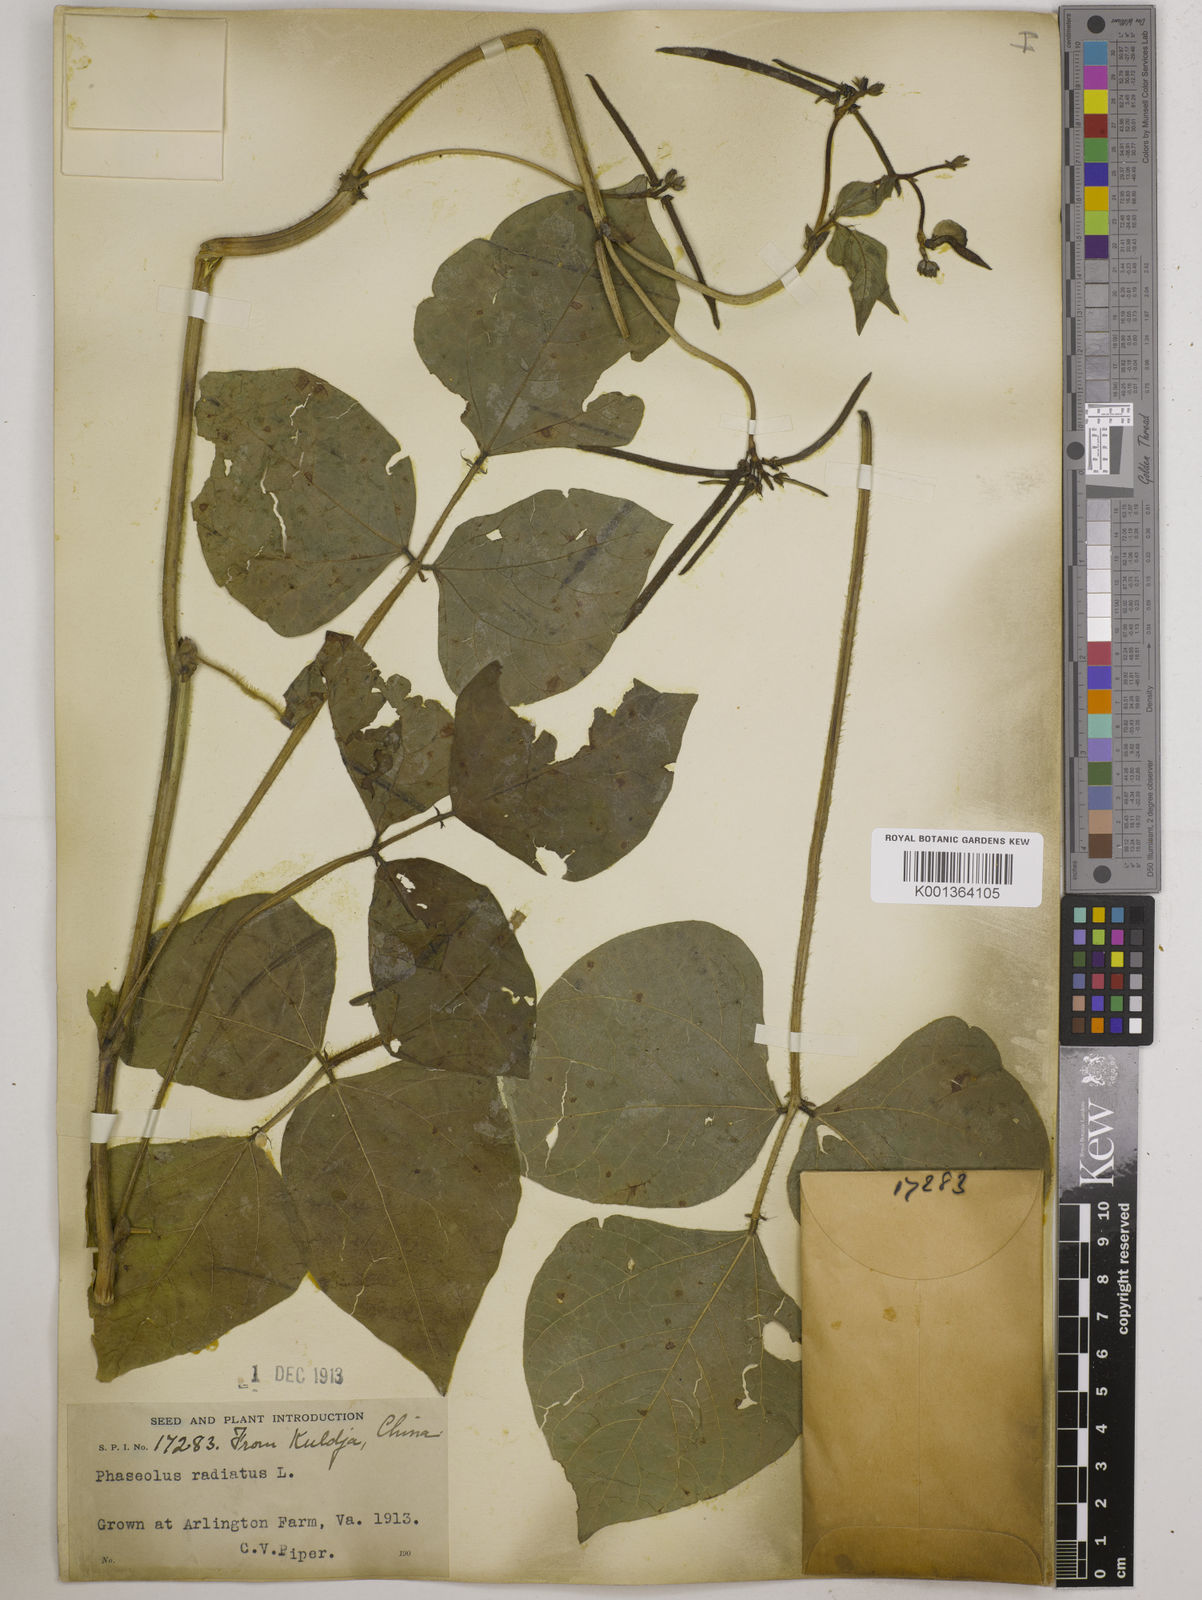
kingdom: Plantae
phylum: Tracheophyta
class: Magnoliopsida
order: Fabales
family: Fabaceae
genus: Vigna
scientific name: Vigna radiata
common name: Mung-bean
